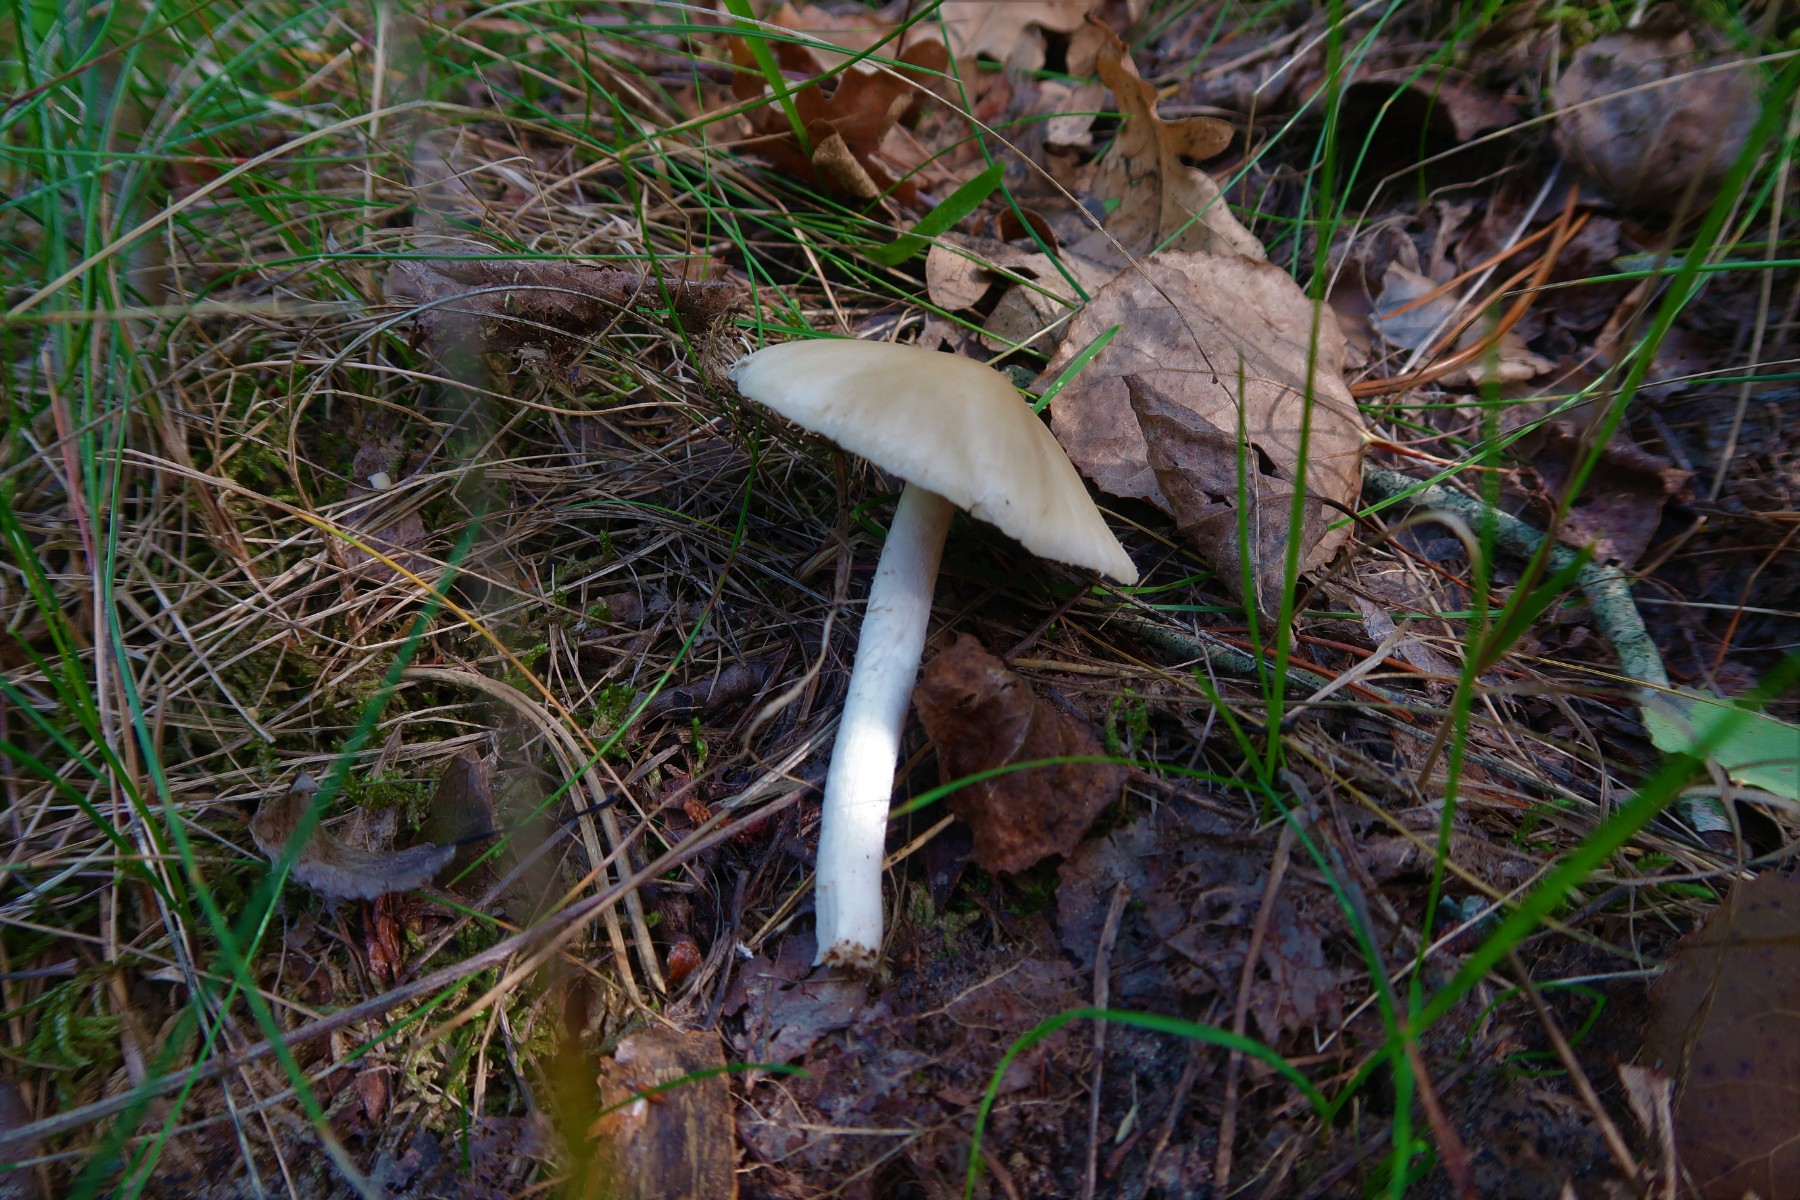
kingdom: Fungi
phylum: Basidiomycota
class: Agaricomycetes
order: Agaricales
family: Psathyrellaceae
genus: Candolleomyces
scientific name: Candolleomyces candolleanus
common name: Candolles mørkhat
